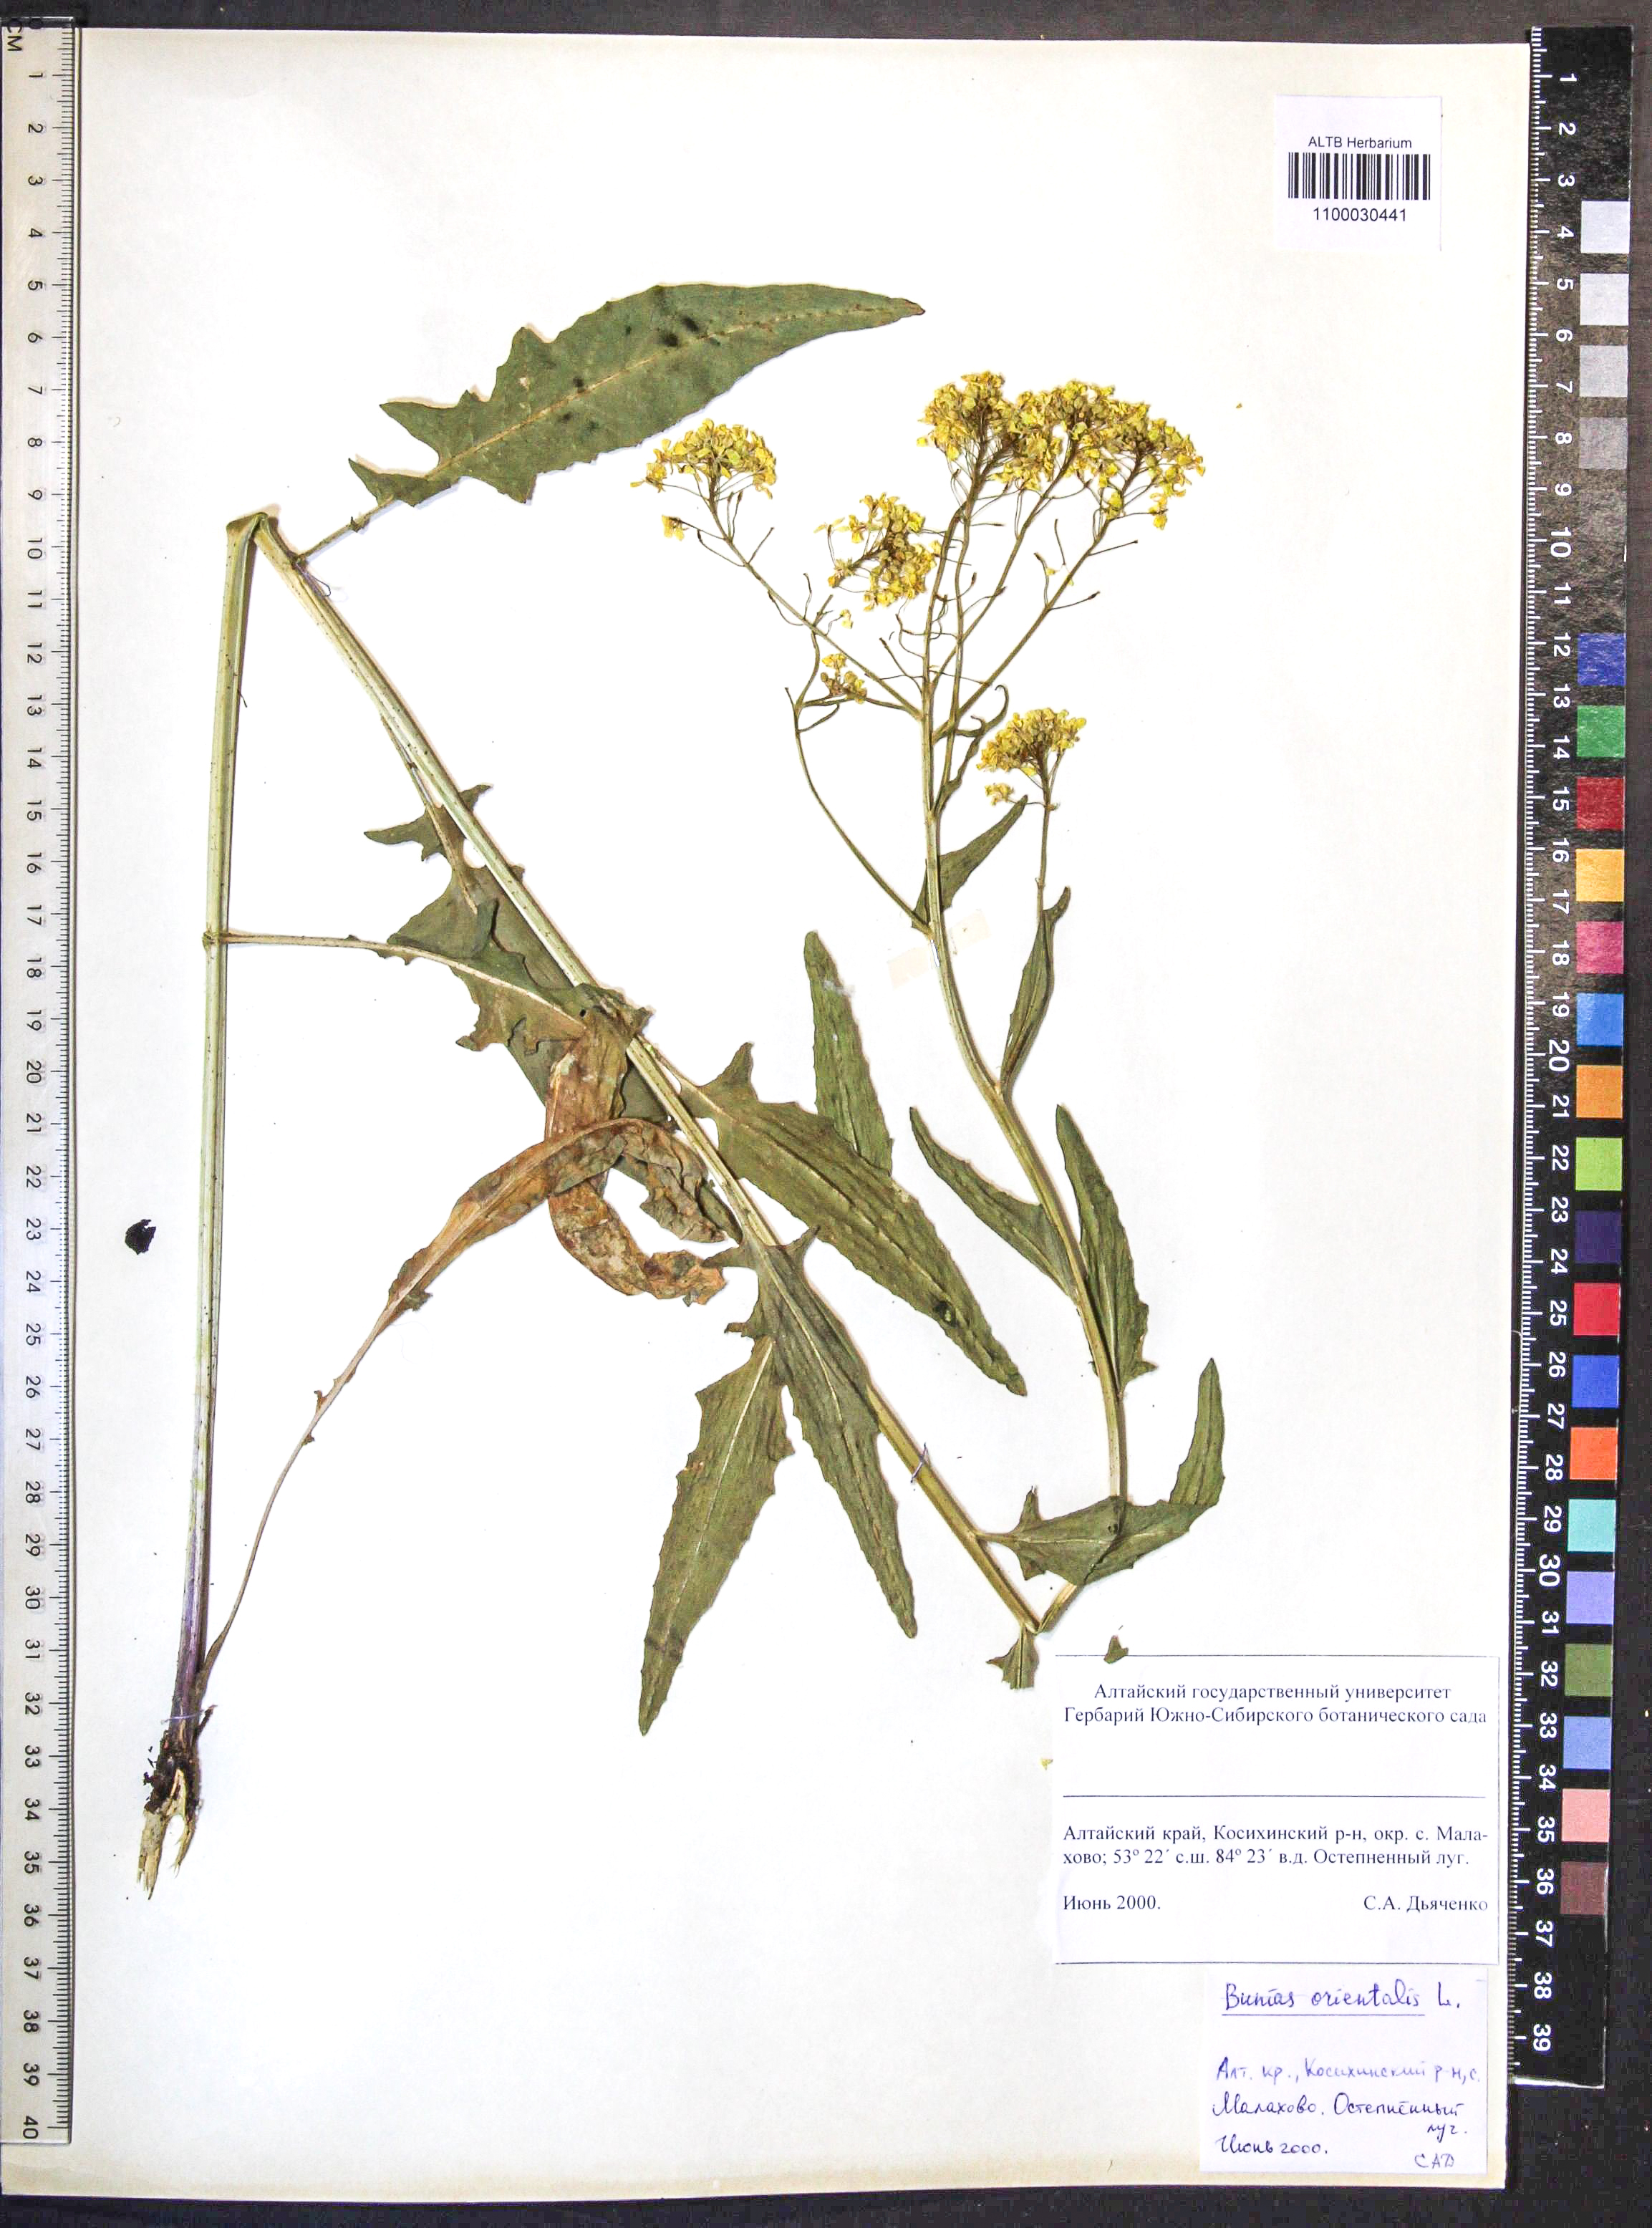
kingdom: Plantae
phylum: Tracheophyta
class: Magnoliopsida
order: Brassicales
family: Brassicaceae
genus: Bunias
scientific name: Bunias orientalis
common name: Warty-cabbage
